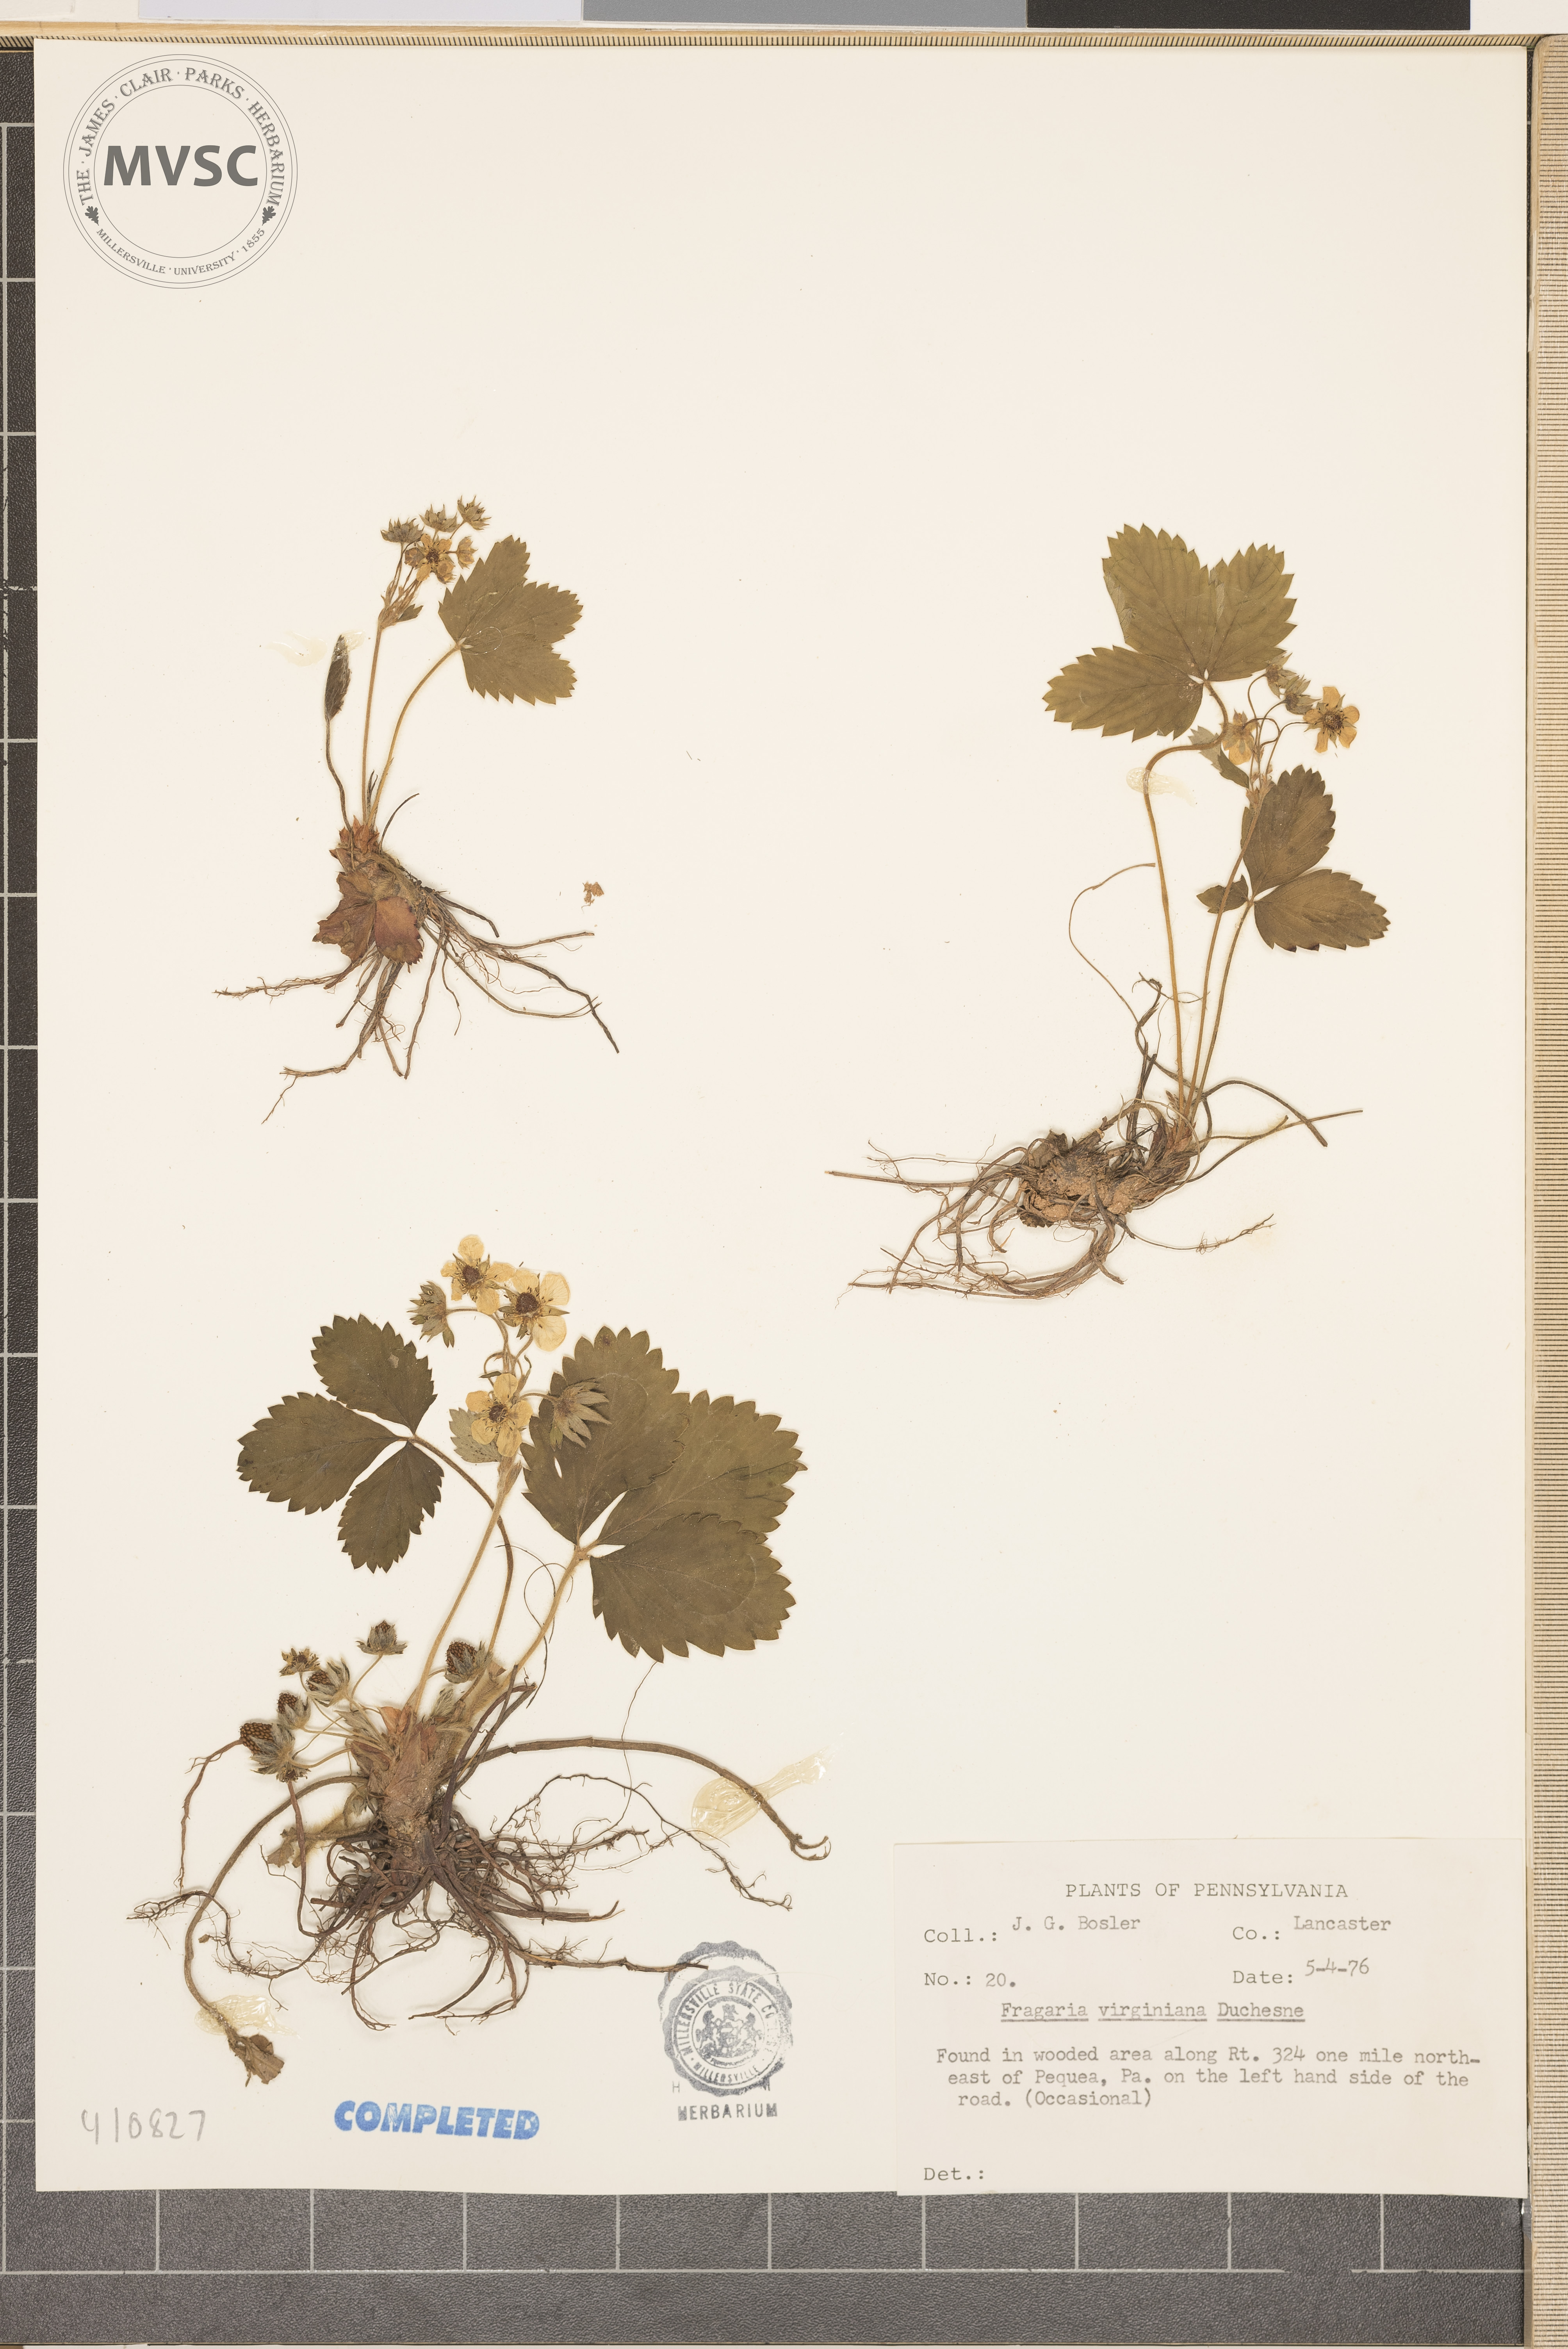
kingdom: Plantae
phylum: Tracheophyta
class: Magnoliopsida
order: Rosales
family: Rosaceae
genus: Fragaria
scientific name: Fragaria virginiana
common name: Thickleaved wild strawberry
